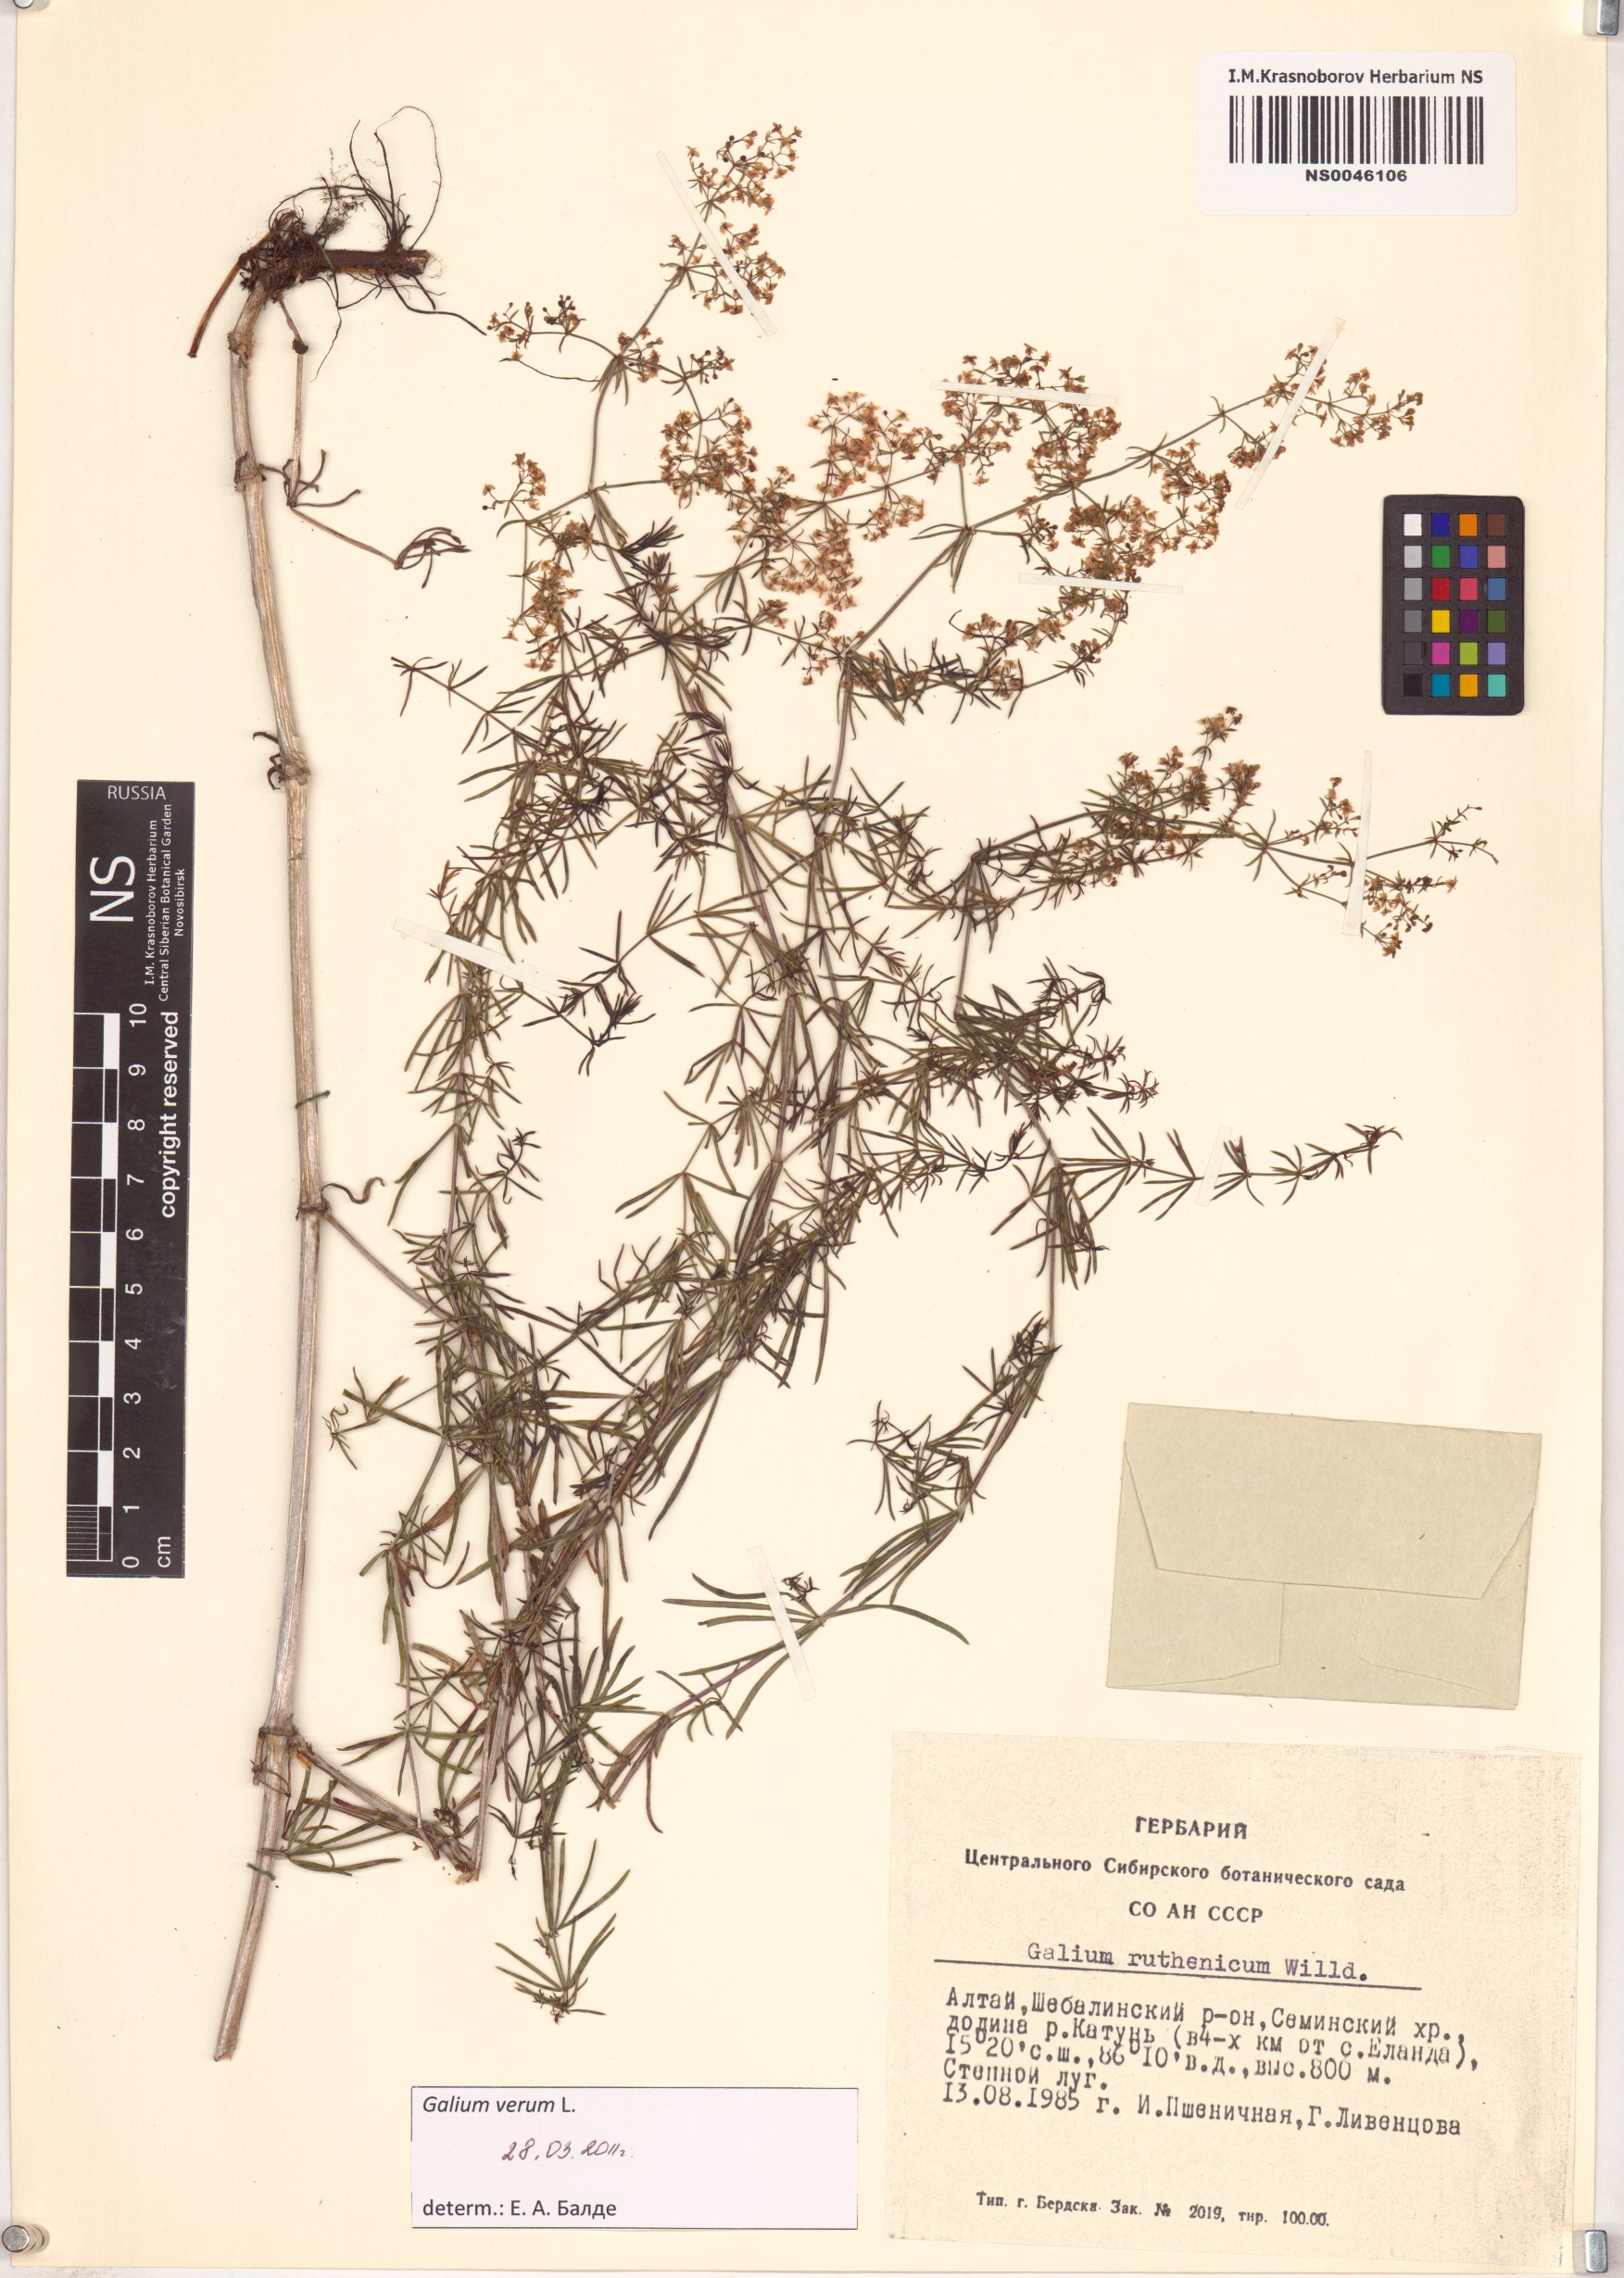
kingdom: Plantae
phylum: Tracheophyta
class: Magnoliopsida
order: Gentianales
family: Rubiaceae
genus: Galium
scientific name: Galium verum
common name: Lady's bedstraw
